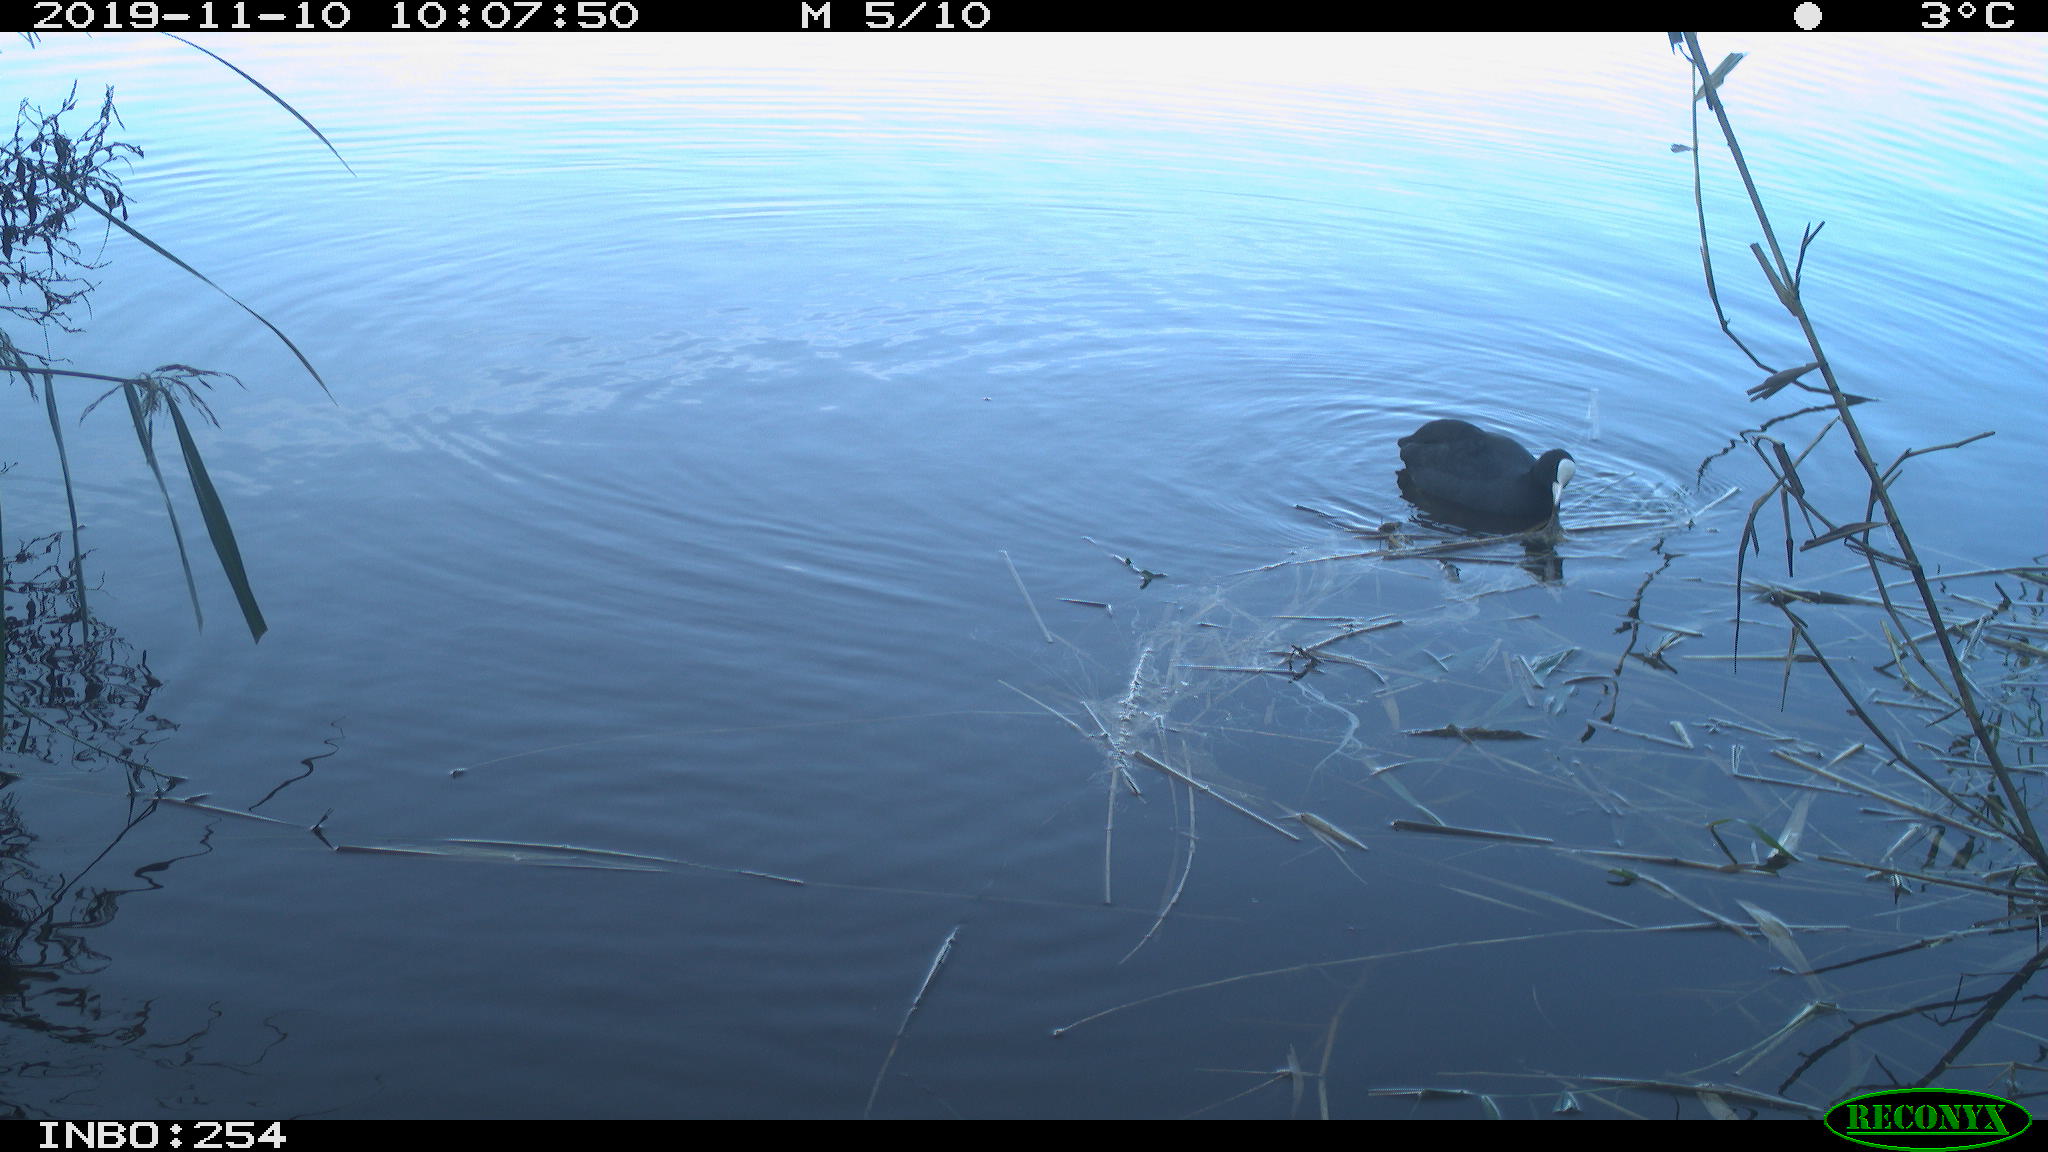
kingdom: Animalia
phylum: Chordata
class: Aves
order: Gruiformes
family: Rallidae
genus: Fulica
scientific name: Fulica atra
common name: Eurasian coot
